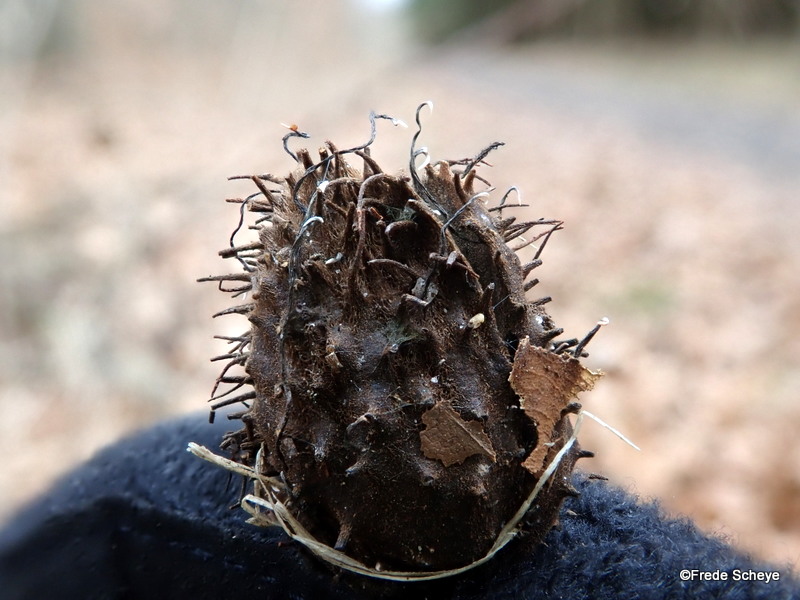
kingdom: Fungi
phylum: Ascomycota
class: Sordariomycetes
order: Xylariales
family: Xylariaceae
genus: Xylaria
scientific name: Xylaria carpophila
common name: bogskål-stødsvamp
